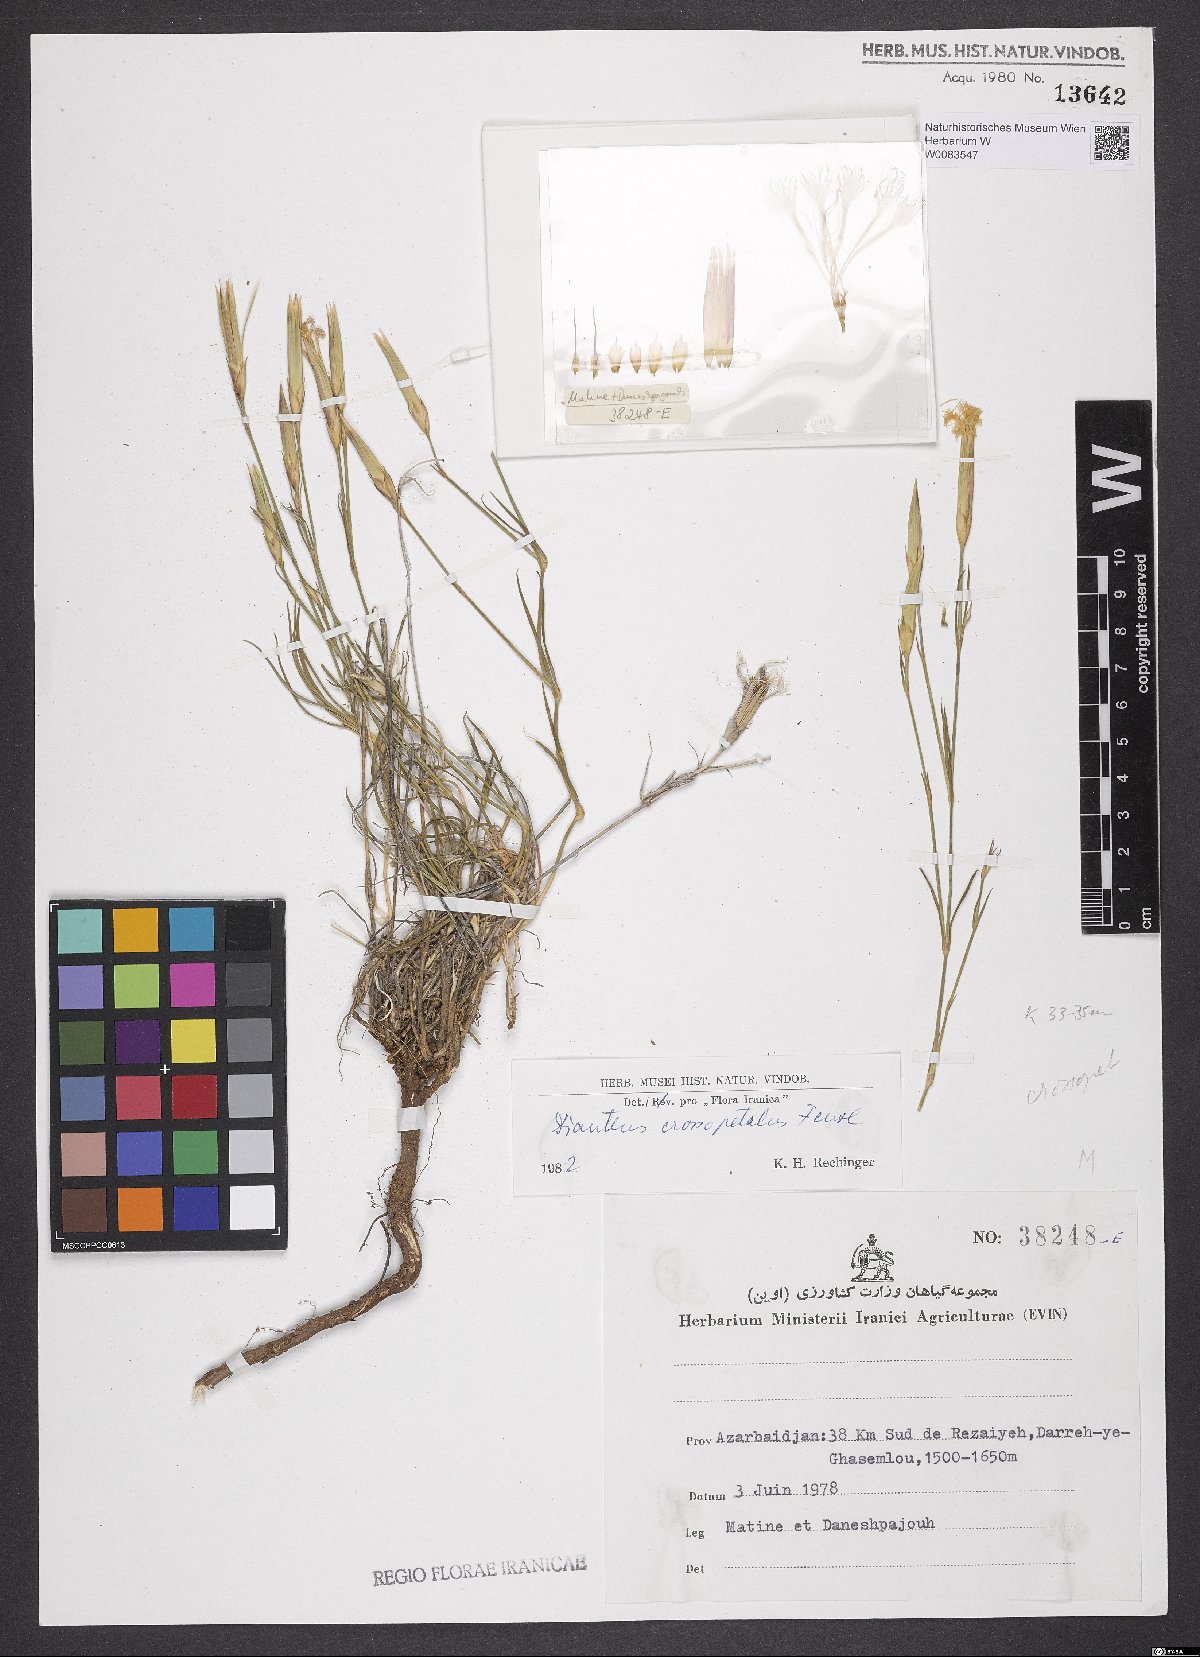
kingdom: Plantae
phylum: Tracheophyta
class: Magnoliopsida
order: Caryophyllales
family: Caryophyllaceae
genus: Dianthus
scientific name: Dianthus crossopetalus
